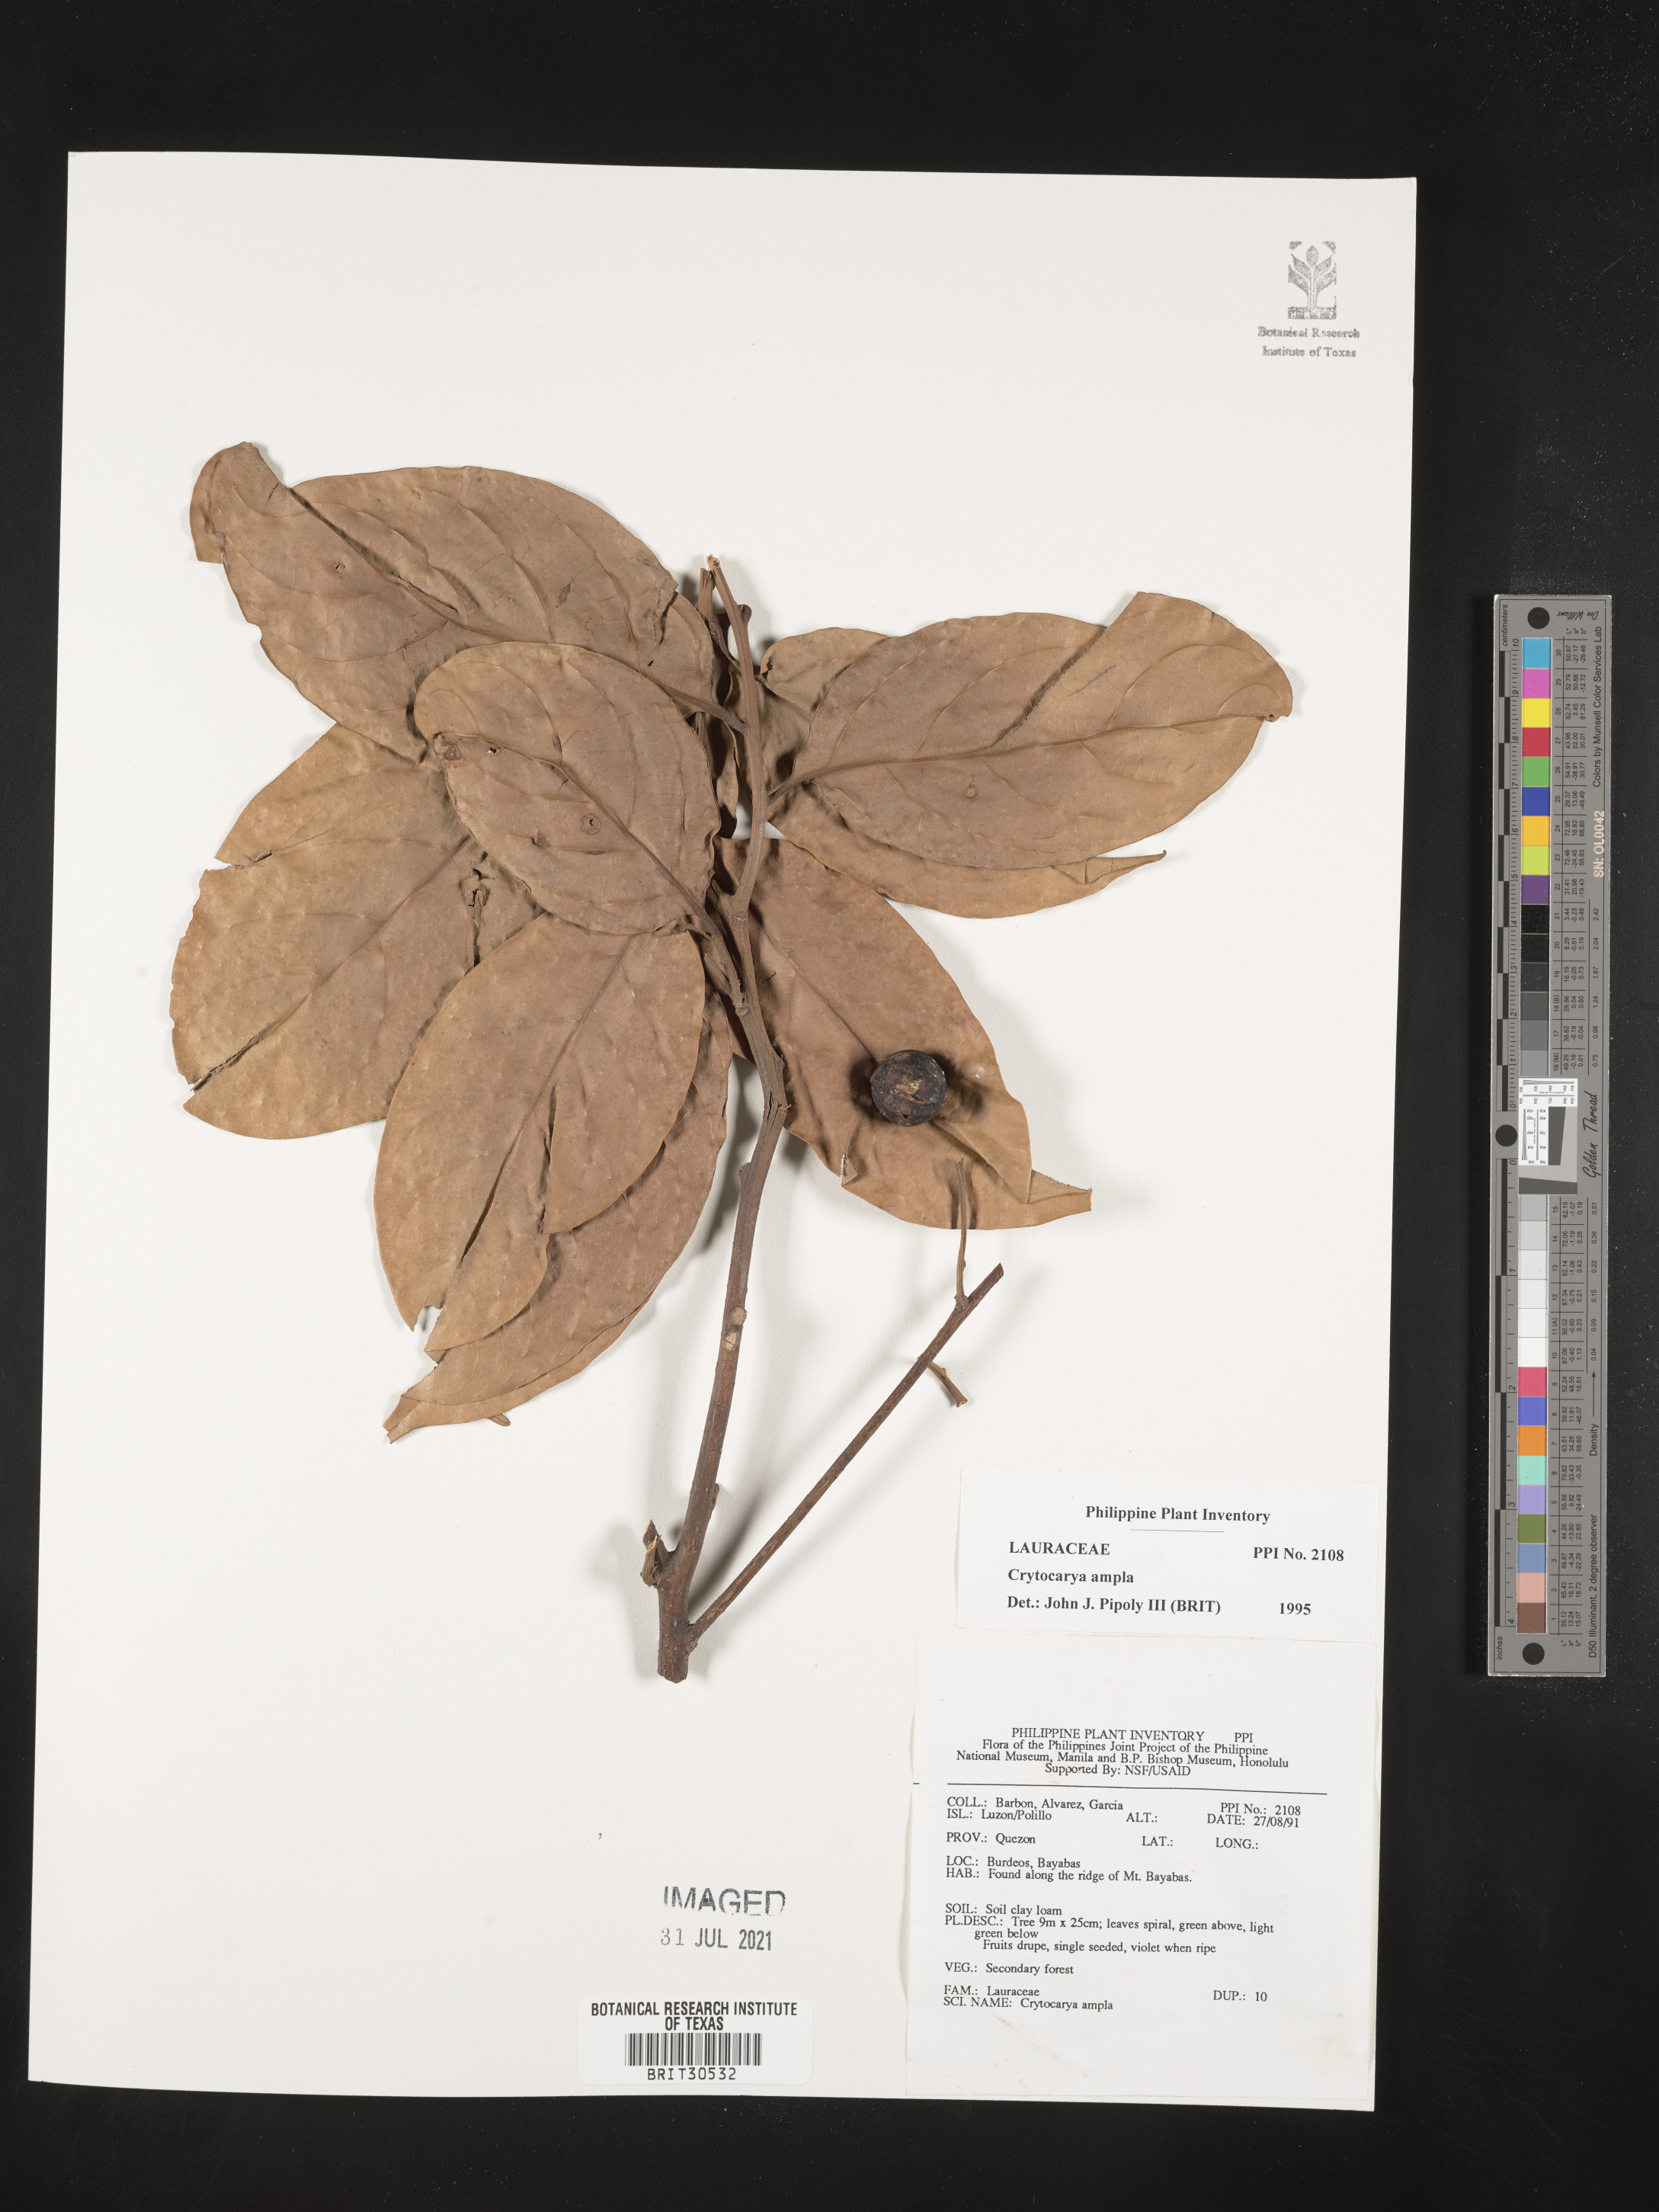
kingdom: Plantae
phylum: Tracheophyta
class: Magnoliopsida
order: Laurales
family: Lauraceae
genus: Cryptocarya
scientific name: Cryptocarya ampla
